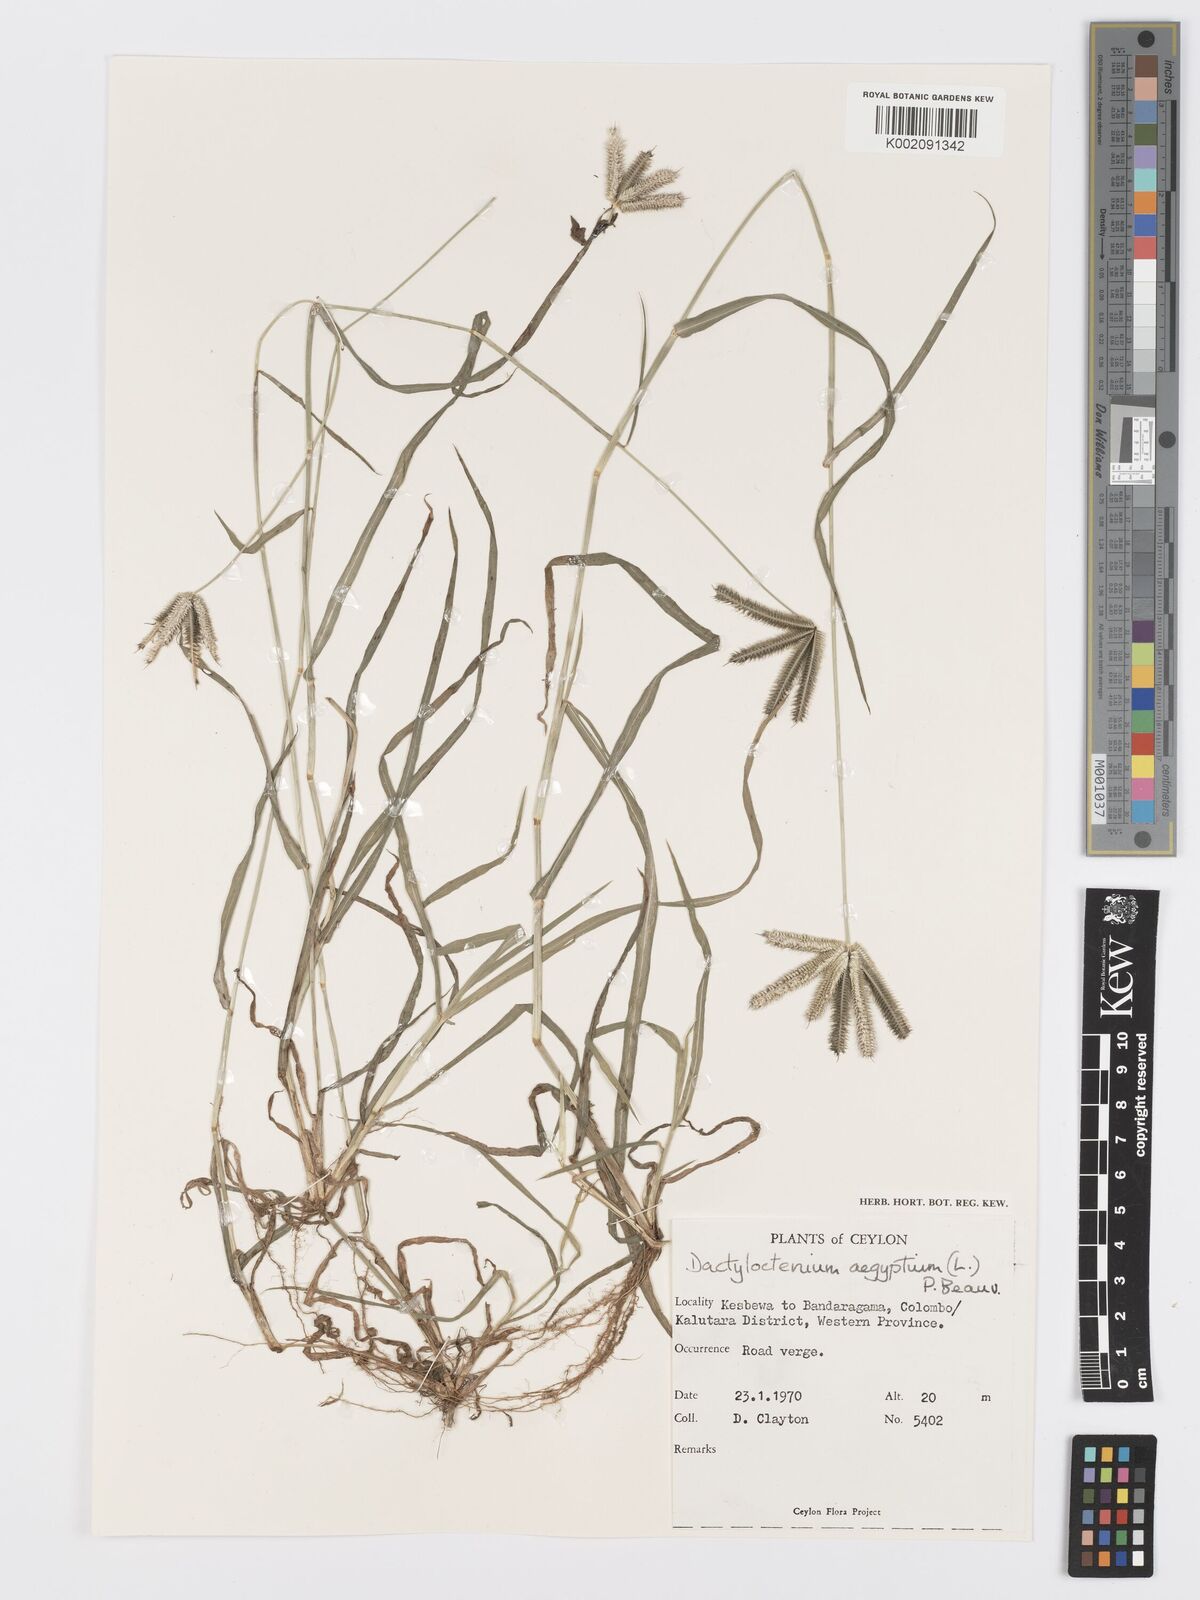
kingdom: Plantae
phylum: Tracheophyta
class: Liliopsida
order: Poales
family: Poaceae
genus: Dactyloctenium
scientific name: Dactyloctenium aegyptium
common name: Egyptian grass
